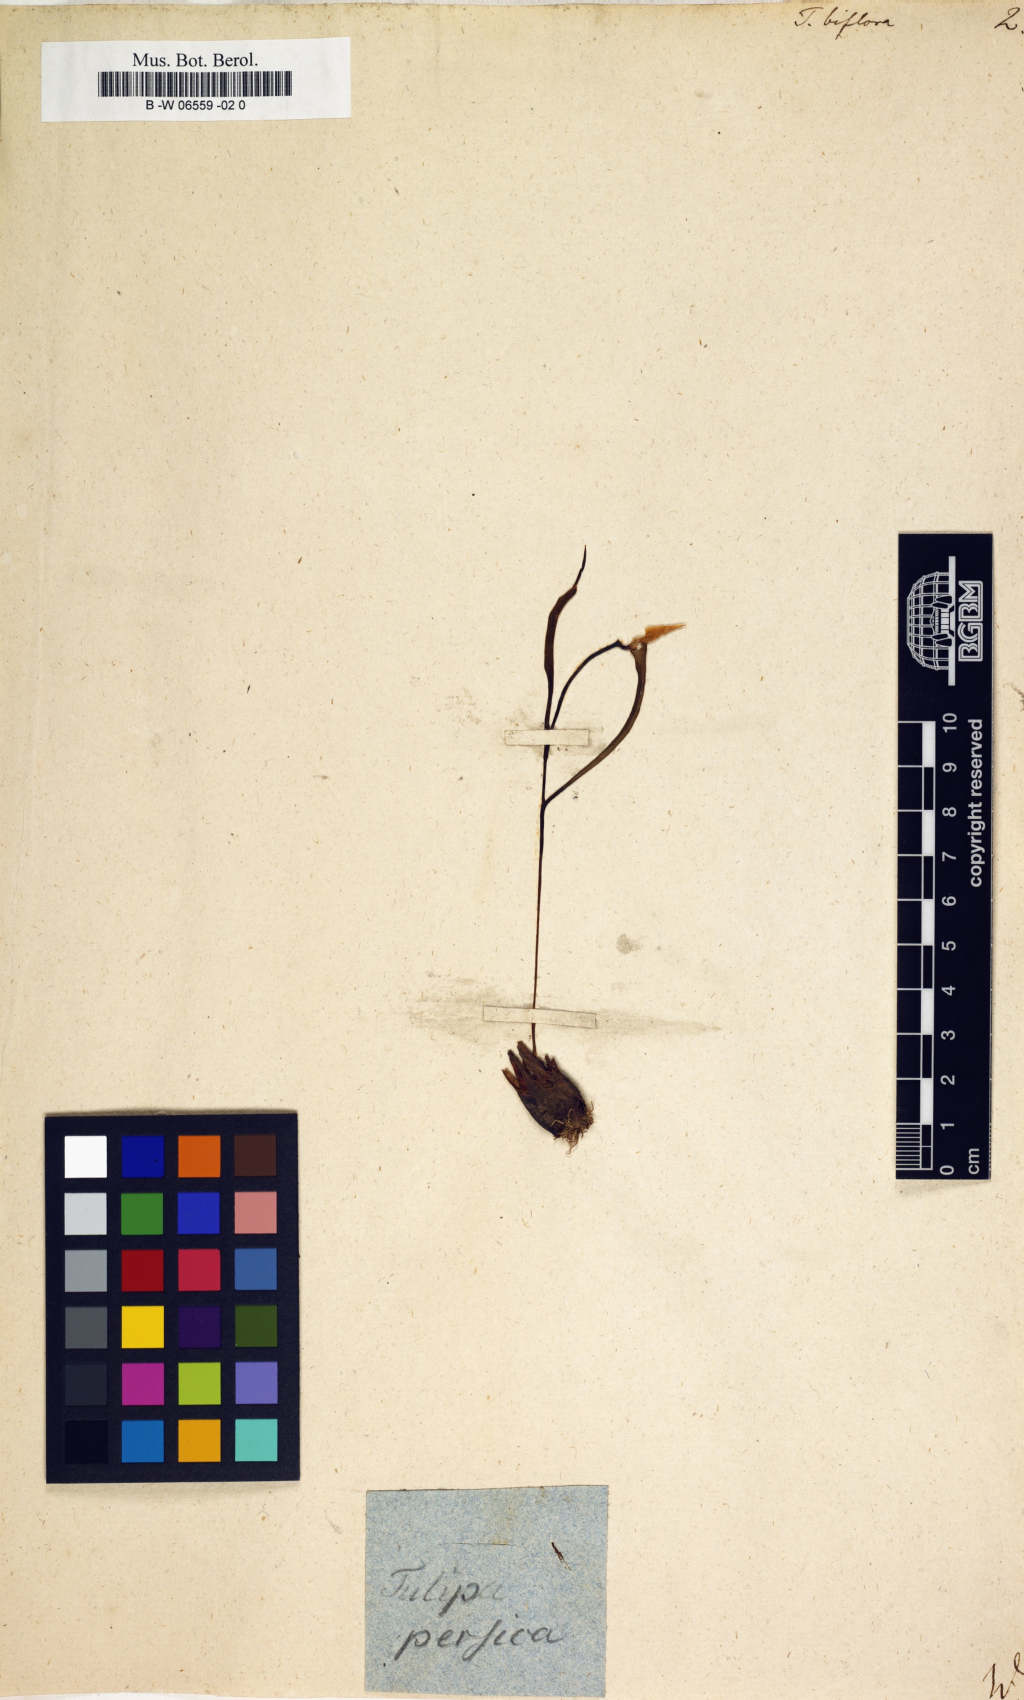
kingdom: Plantae
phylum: Tracheophyta
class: Liliopsida
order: Liliales
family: Liliaceae
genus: Tulipa
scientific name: Tulipa biflora
